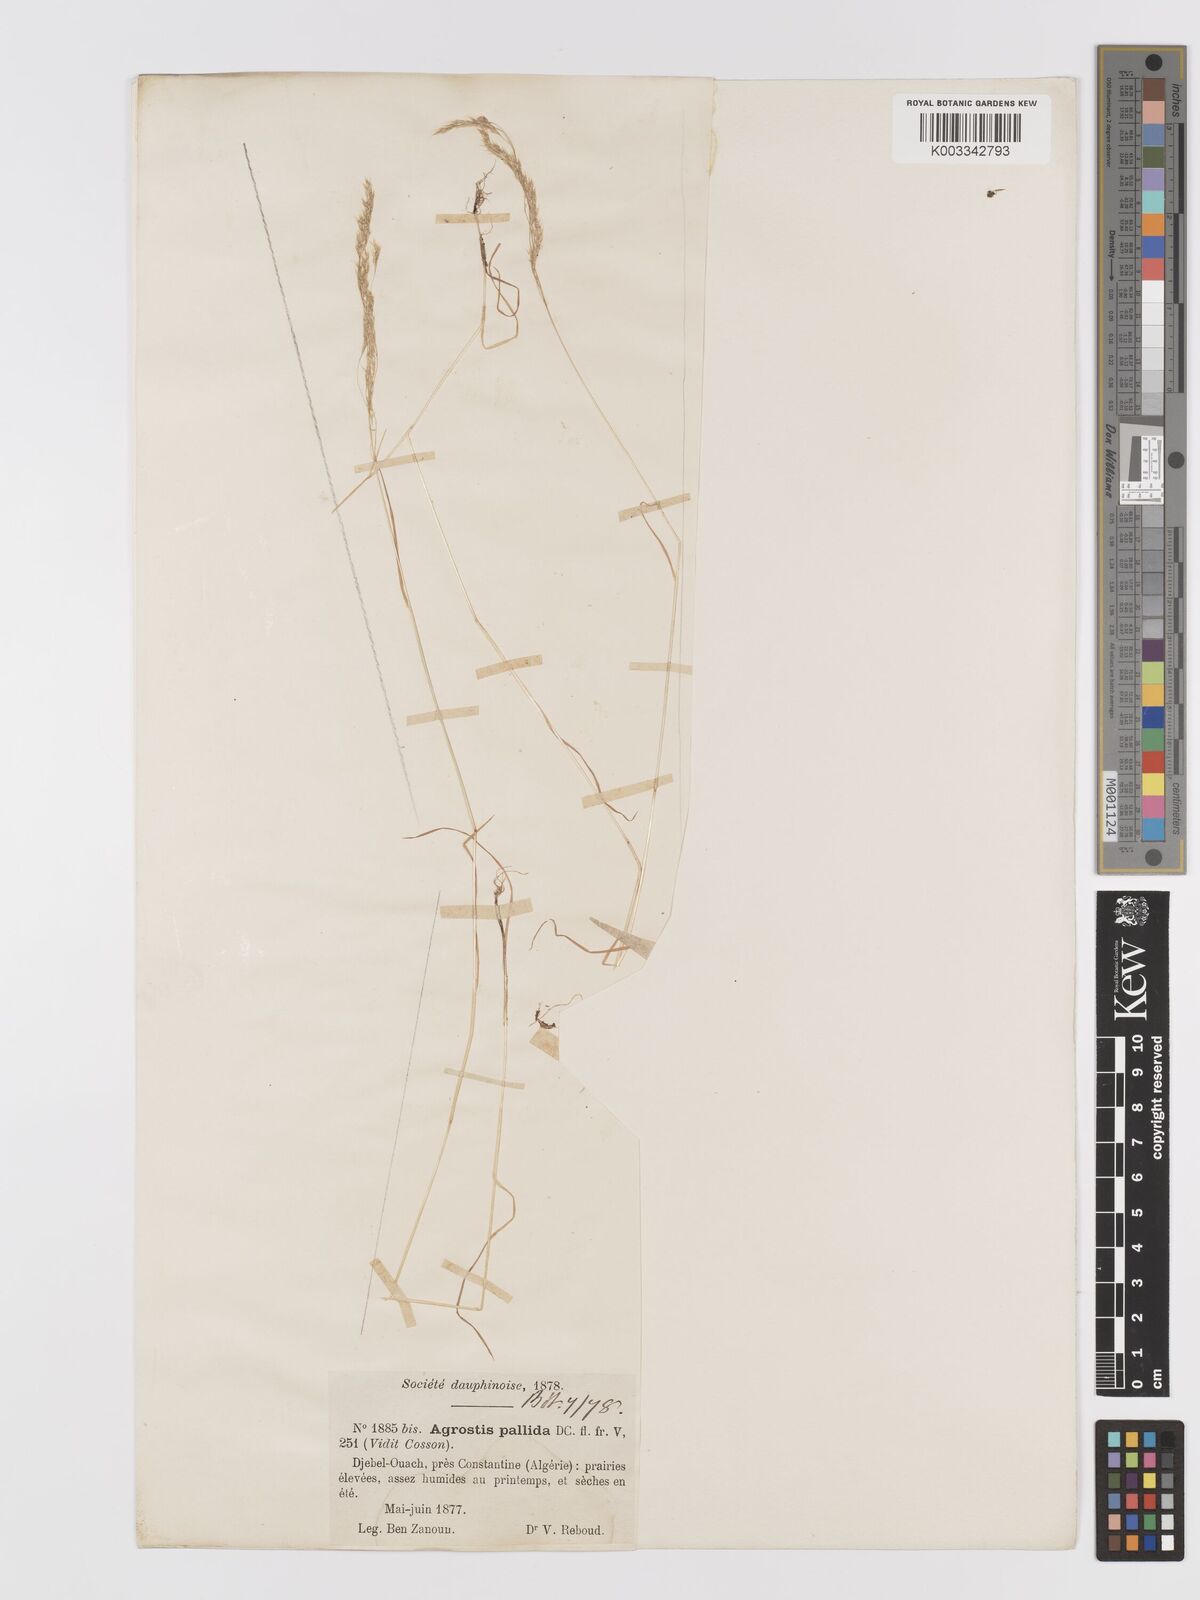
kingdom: Plantae
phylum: Tracheophyta
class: Liliopsida
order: Poales
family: Poaceae
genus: Agrostis
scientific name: Agrostis pourretii
